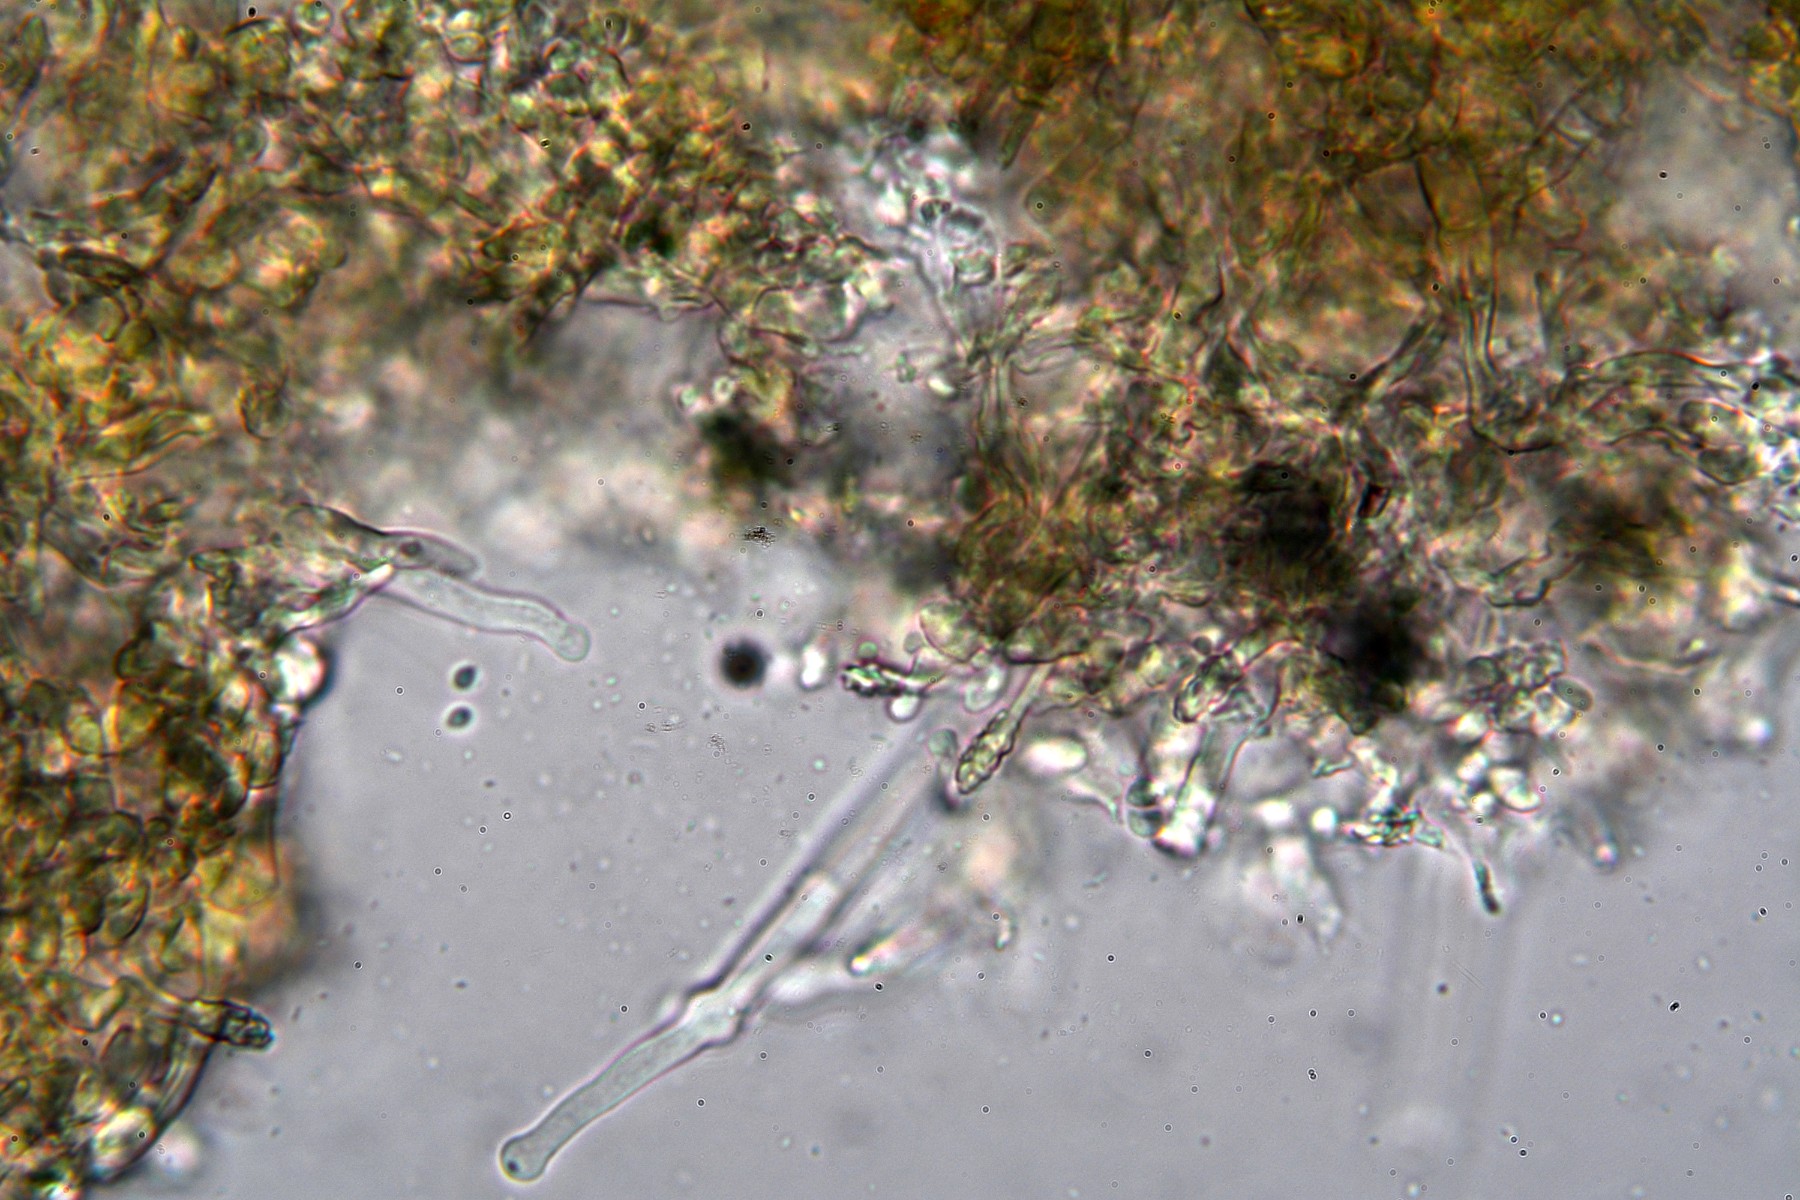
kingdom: Fungi
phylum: Basidiomycota
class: Agaricomycetes
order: Hymenochaetales
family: Hyphodontiaceae
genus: Hyphodontia
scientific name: Hyphodontia alutaria
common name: flaskerenser-nålehinde
